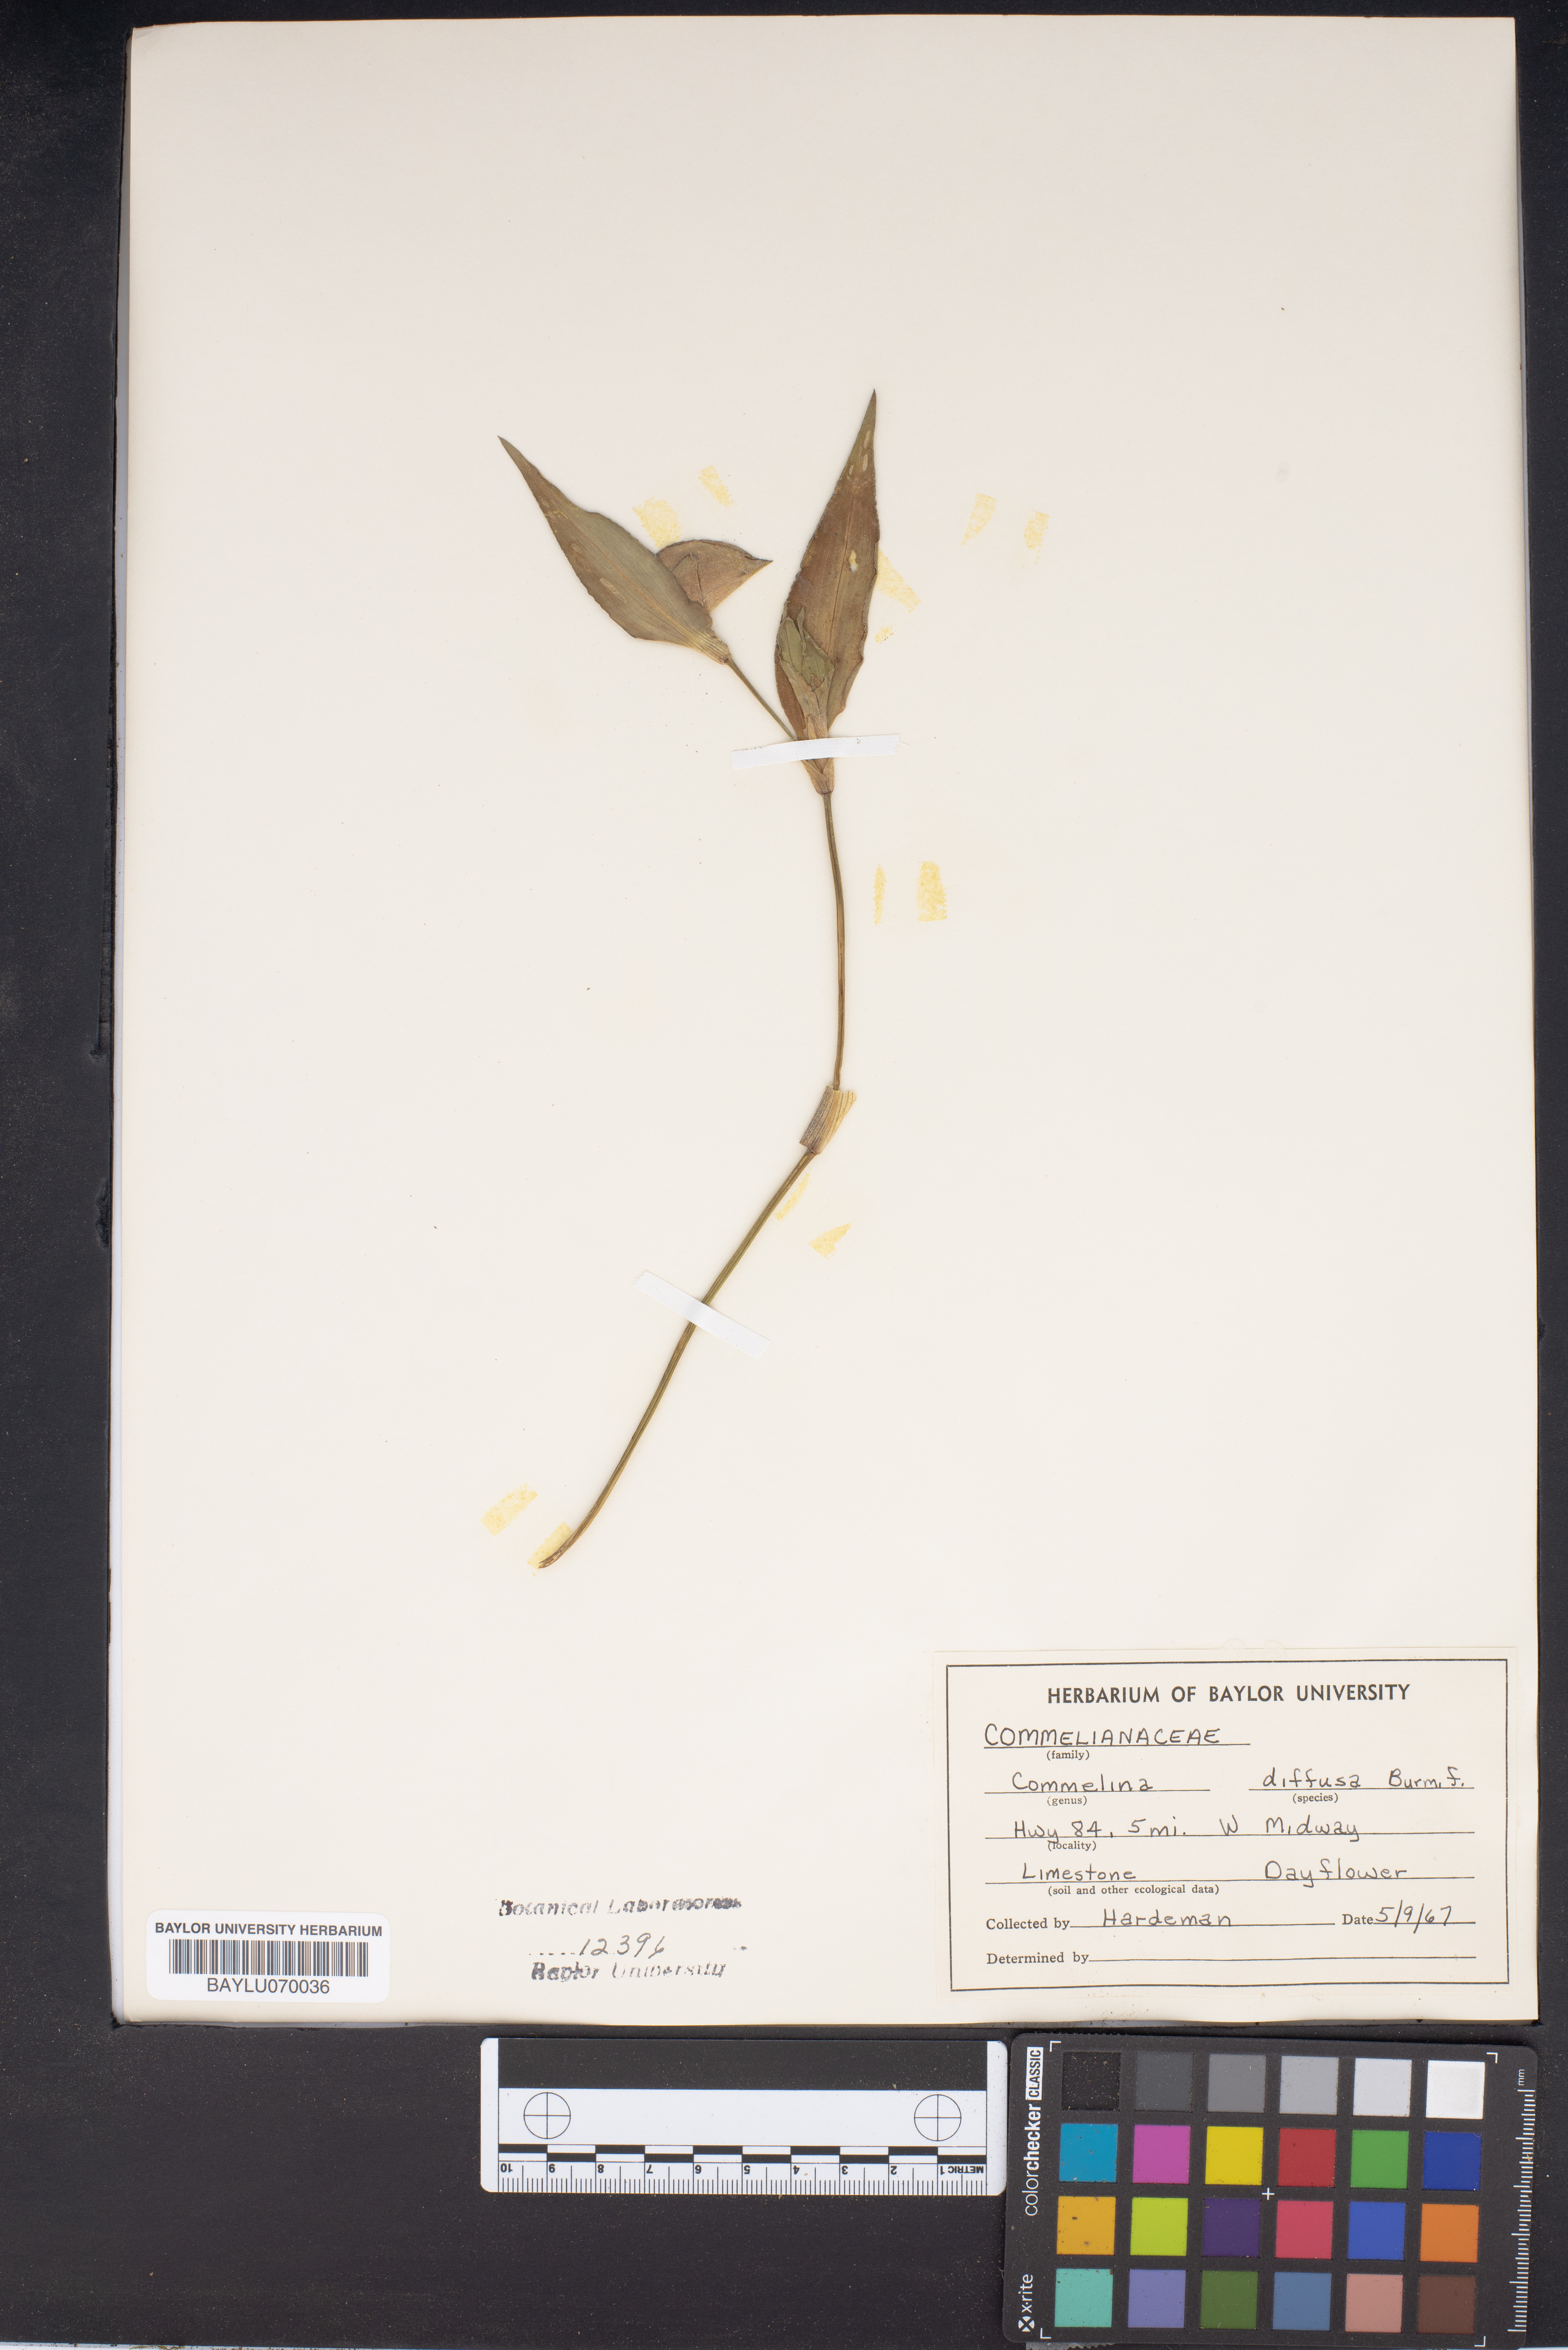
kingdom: Plantae
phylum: Tracheophyta
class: Liliopsida
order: Commelinales
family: Commelinaceae
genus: Commelina
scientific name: Commelina diffusa
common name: Climbing dayflower
